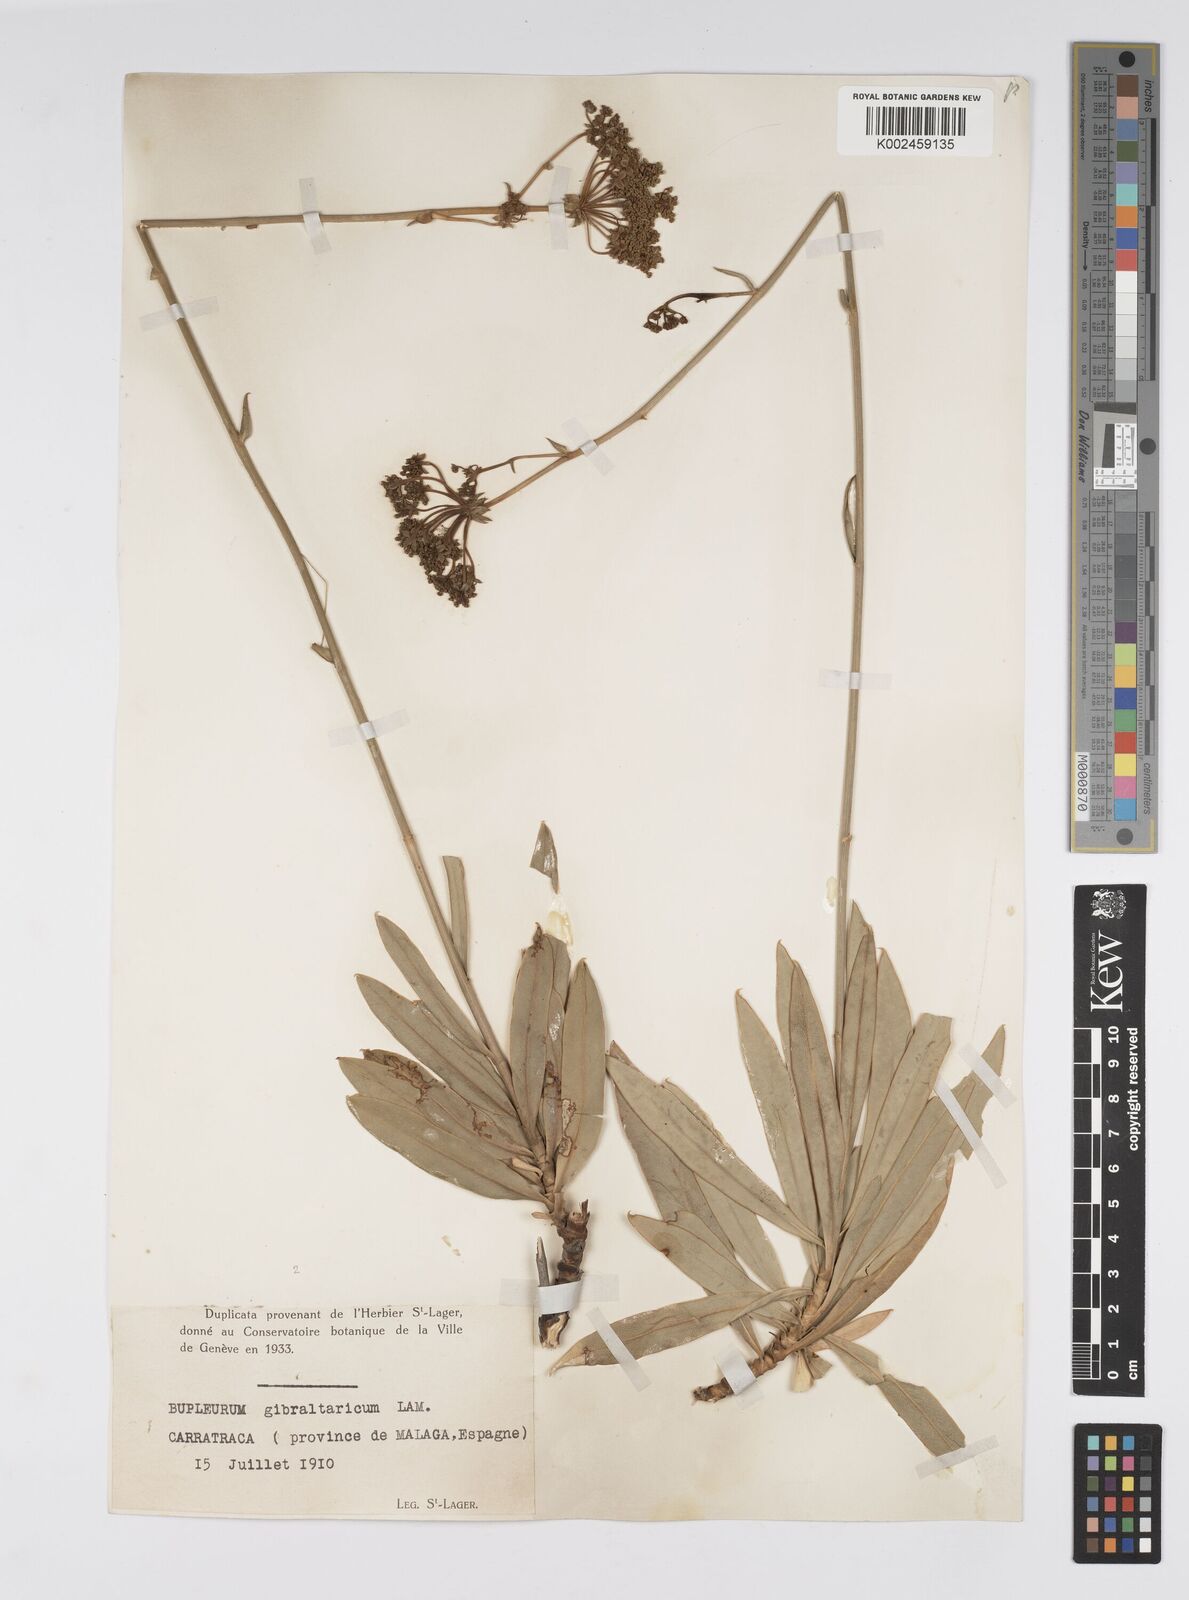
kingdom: Plantae
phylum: Tracheophyta
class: Magnoliopsida
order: Apiales
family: Apiaceae
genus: Bupleurum
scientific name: Bupleurum gibraltaricum
